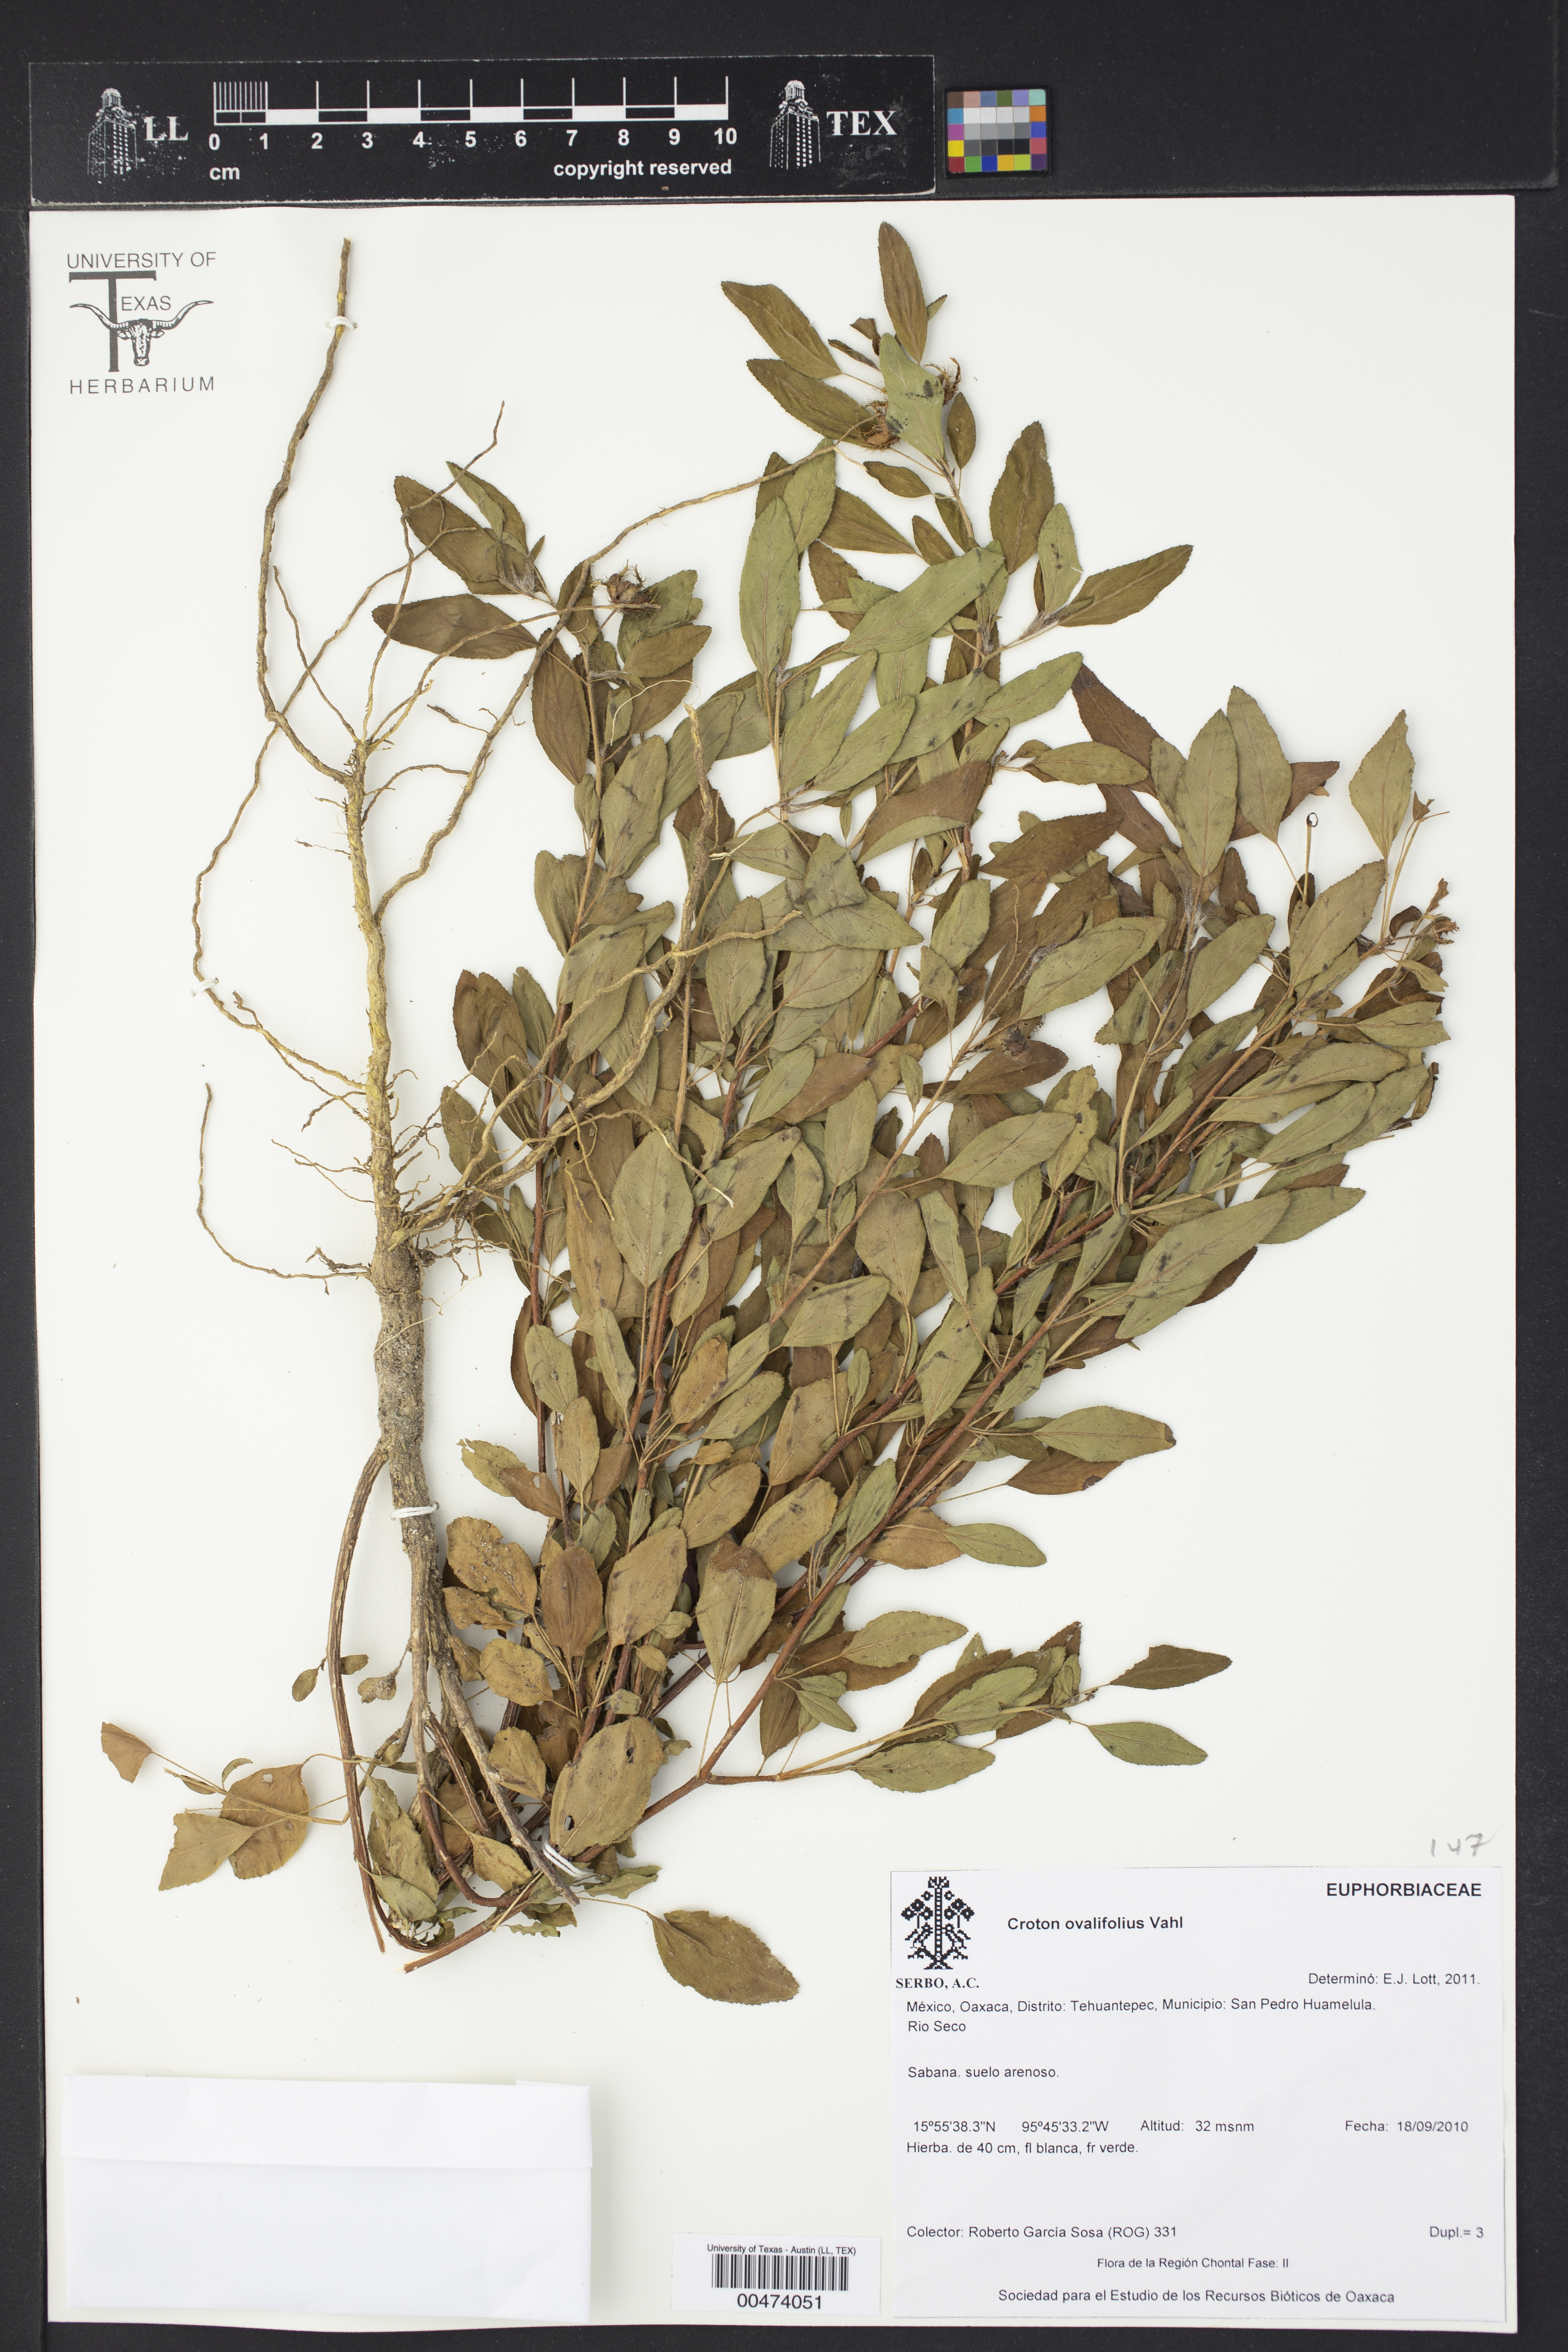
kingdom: Plantae
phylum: Tracheophyta
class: Magnoliopsida
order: Malpighiales
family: Euphorbiaceae
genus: Croton
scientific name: Croton ovalifolius
